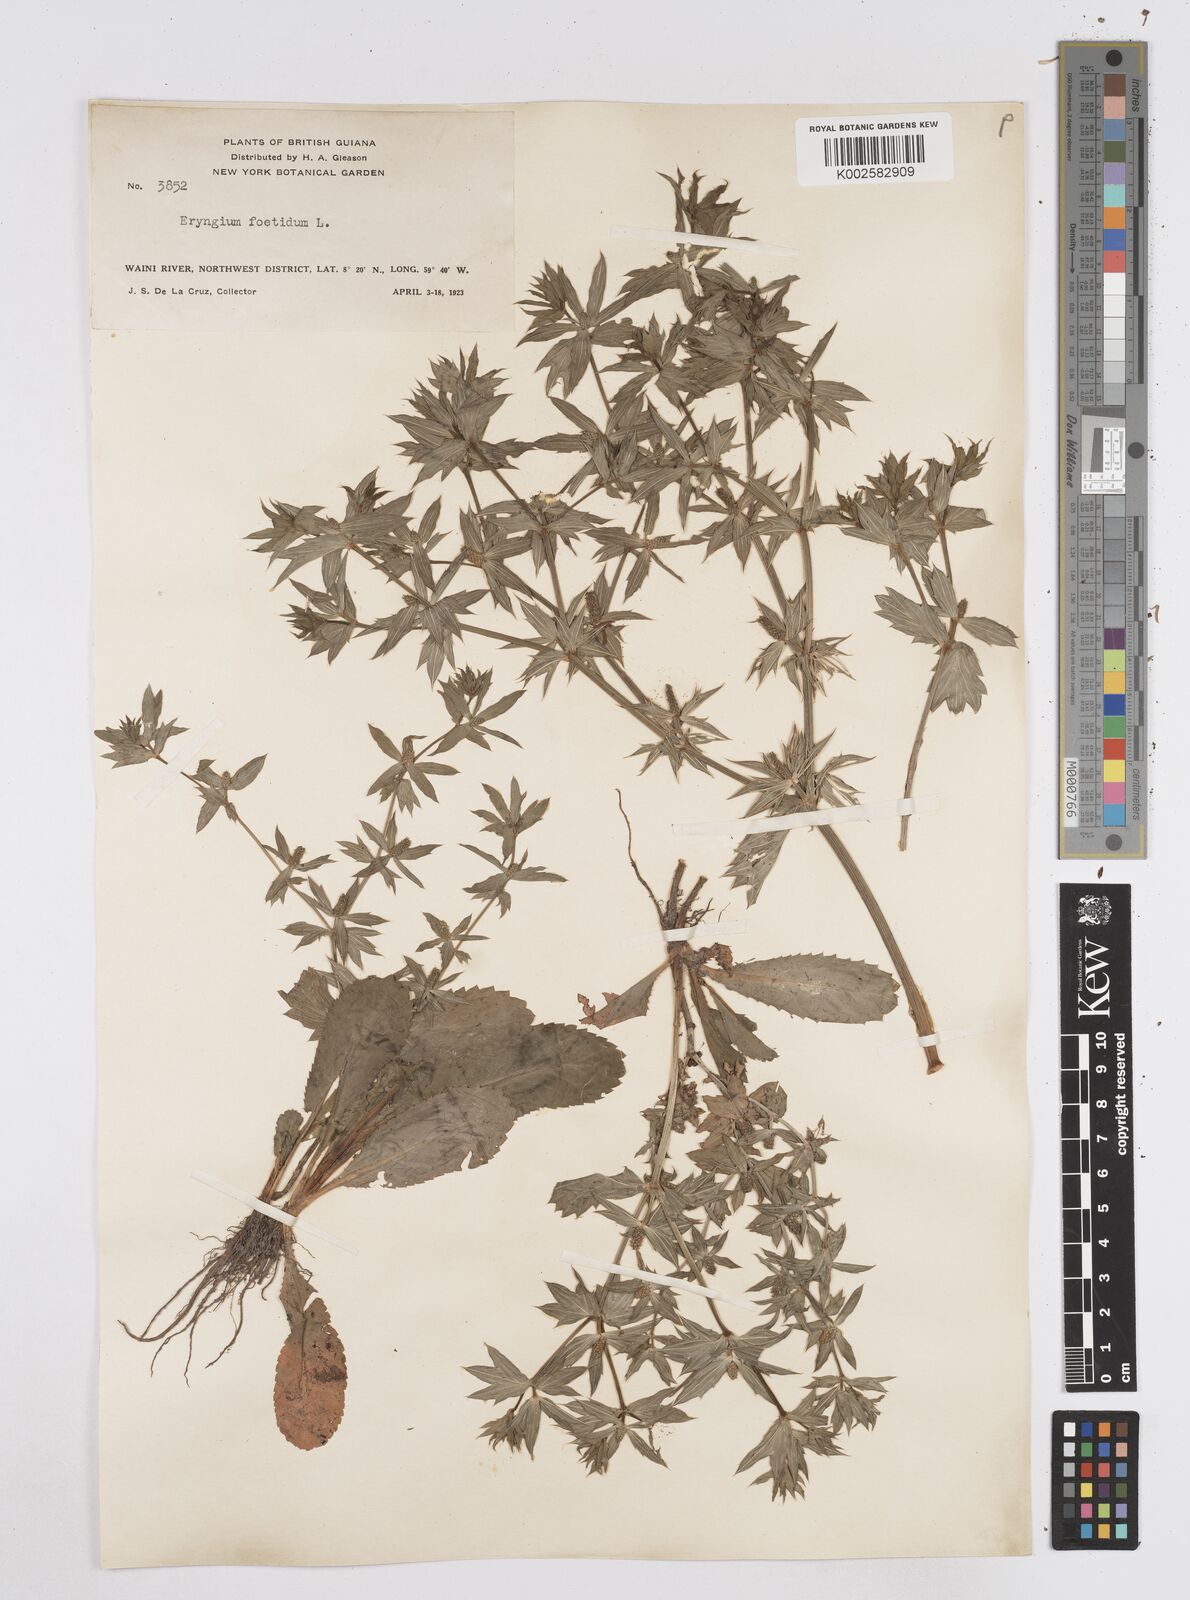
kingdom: Plantae
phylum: Tracheophyta
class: Magnoliopsida
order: Apiales
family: Apiaceae
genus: Eryngium
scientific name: Eryngium foetidum
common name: Fitweed
